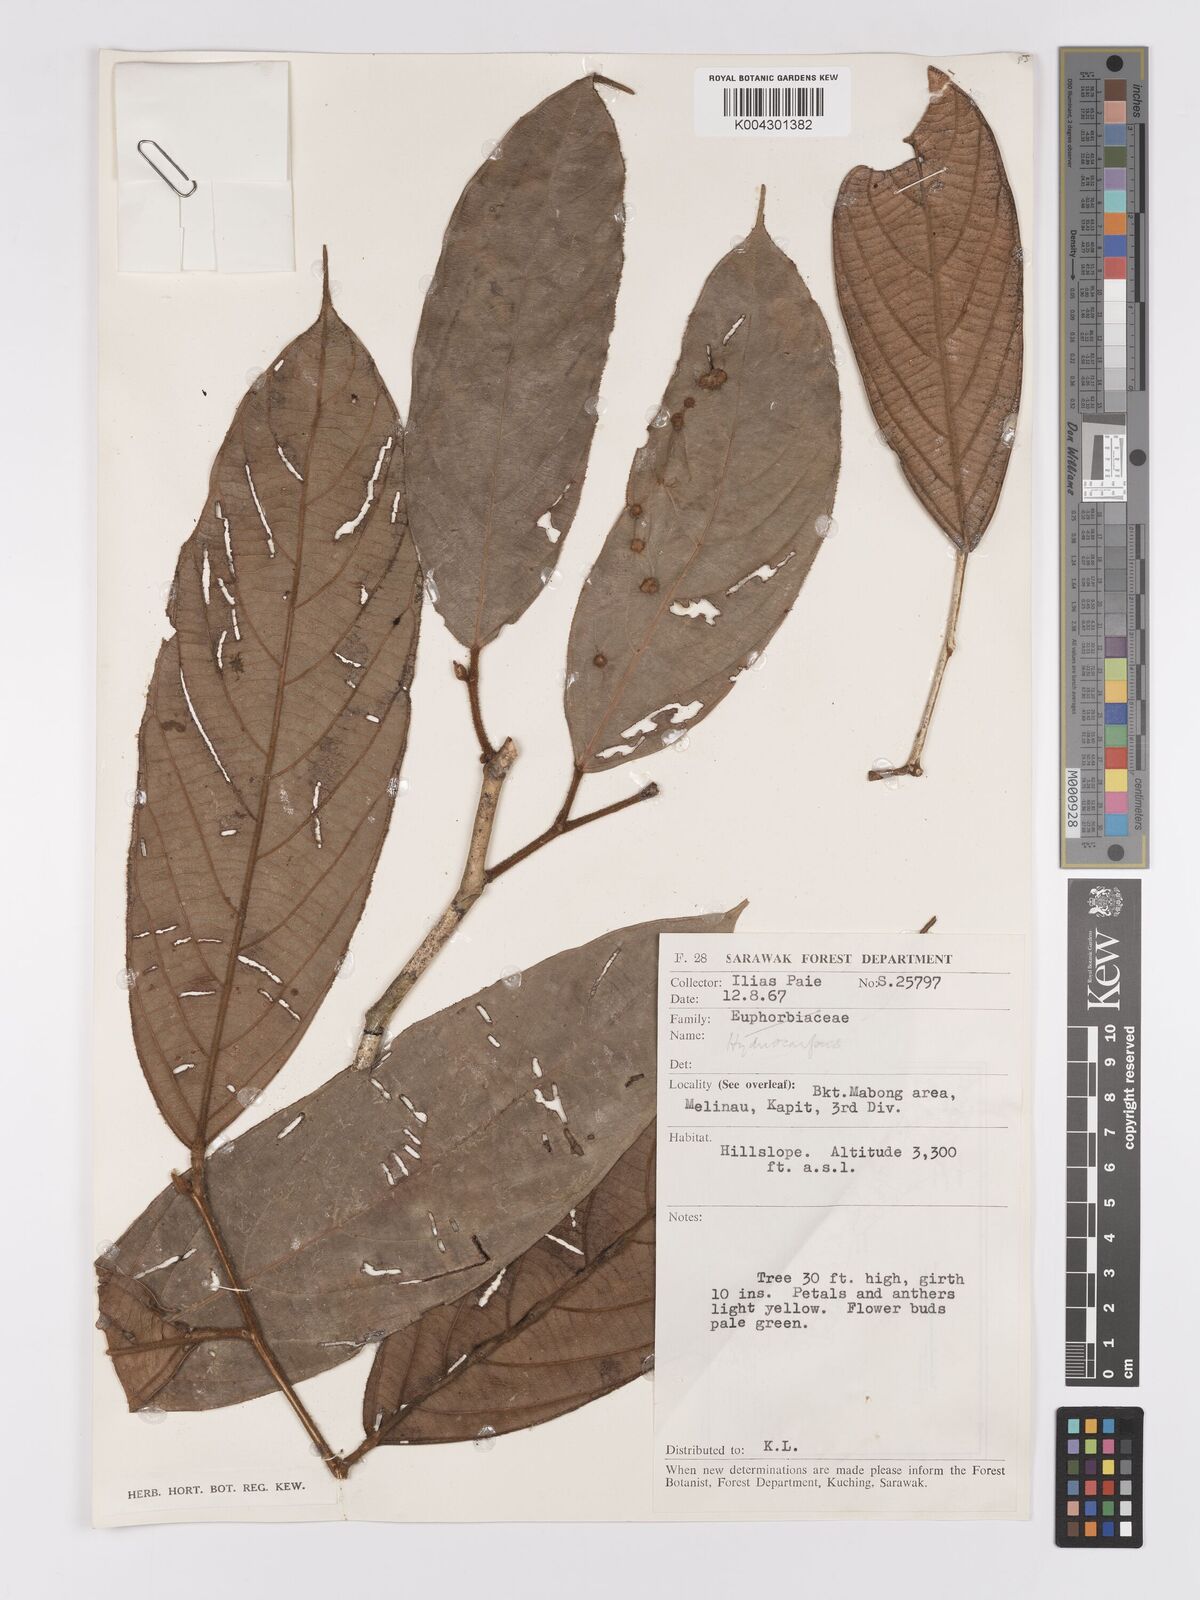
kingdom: Plantae
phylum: Tracheophyta
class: Magnoliopsida
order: Malpighiales
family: Achariaceae
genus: Hydnocarpus
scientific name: Hydnocarpus
